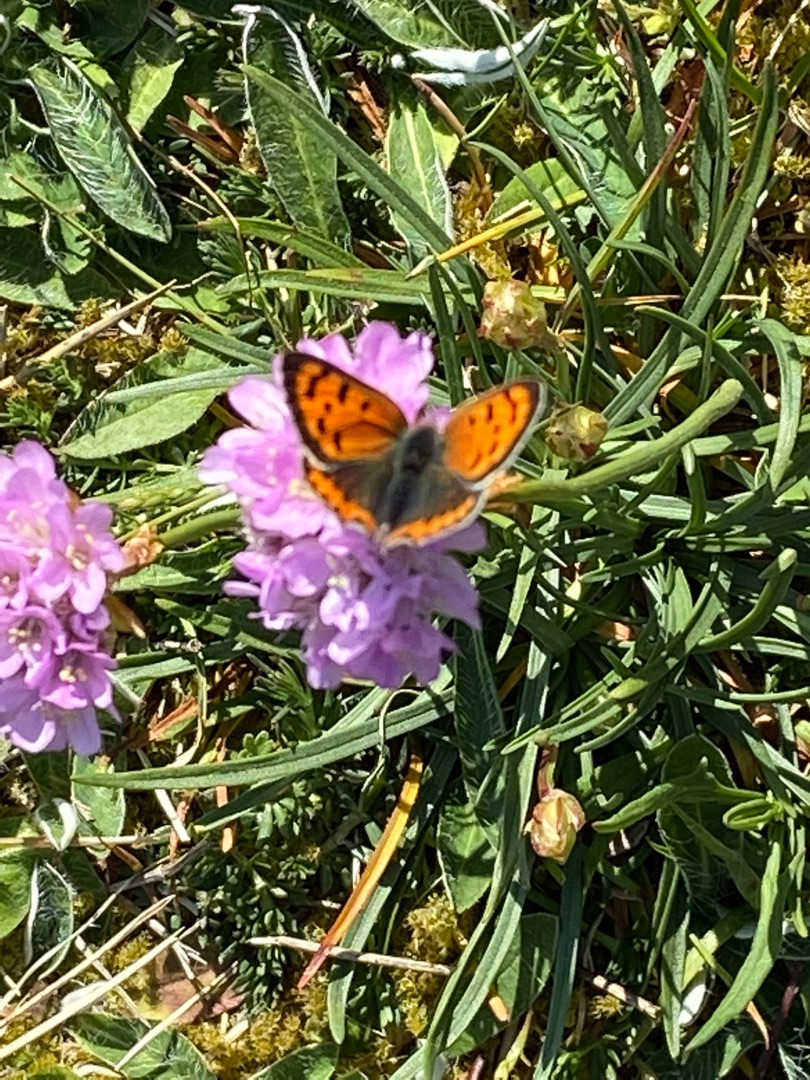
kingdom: Animalia
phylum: Arthropoda
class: Insecta
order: Lepidoptera
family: Lycaenidae
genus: Lycaena
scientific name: Lycaena phlaeas
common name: Lille ildfugl
